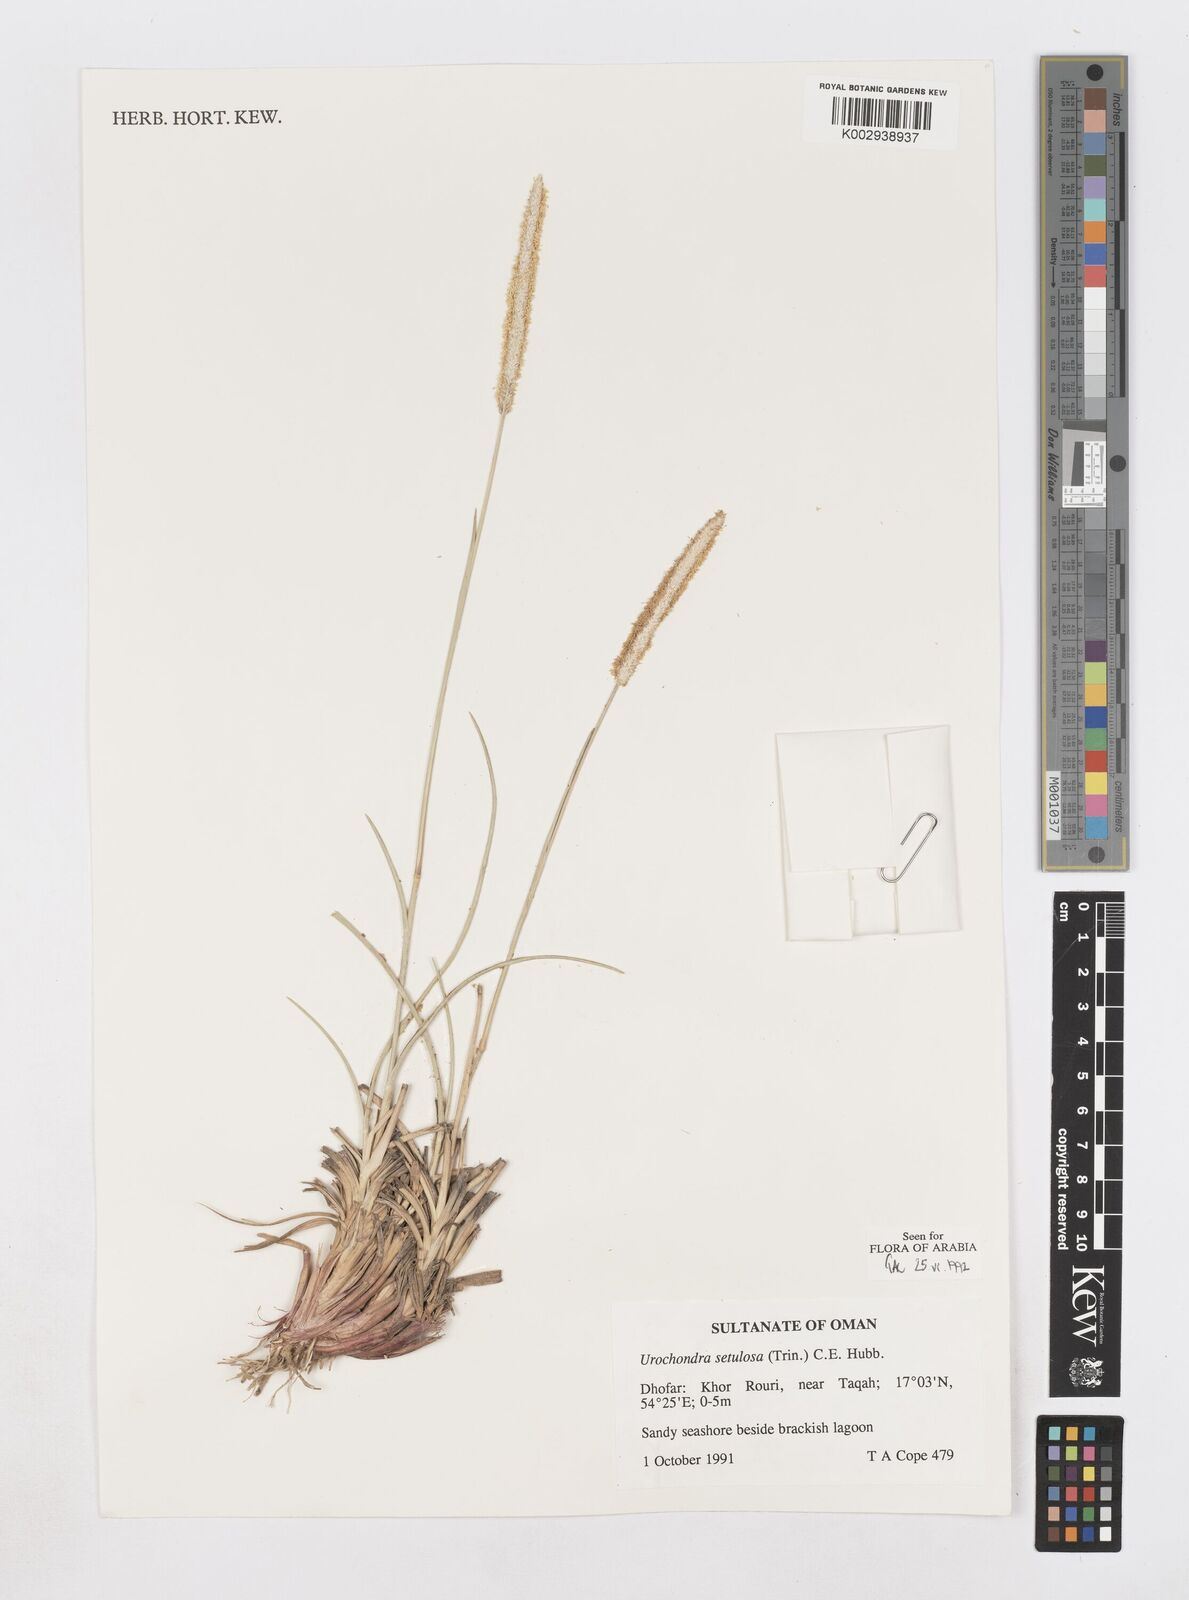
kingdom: Plantae
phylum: Tracheophyta
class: Liliopsida
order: Poales
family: Poaceae
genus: Urochondra
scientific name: Urochondra setulosa
